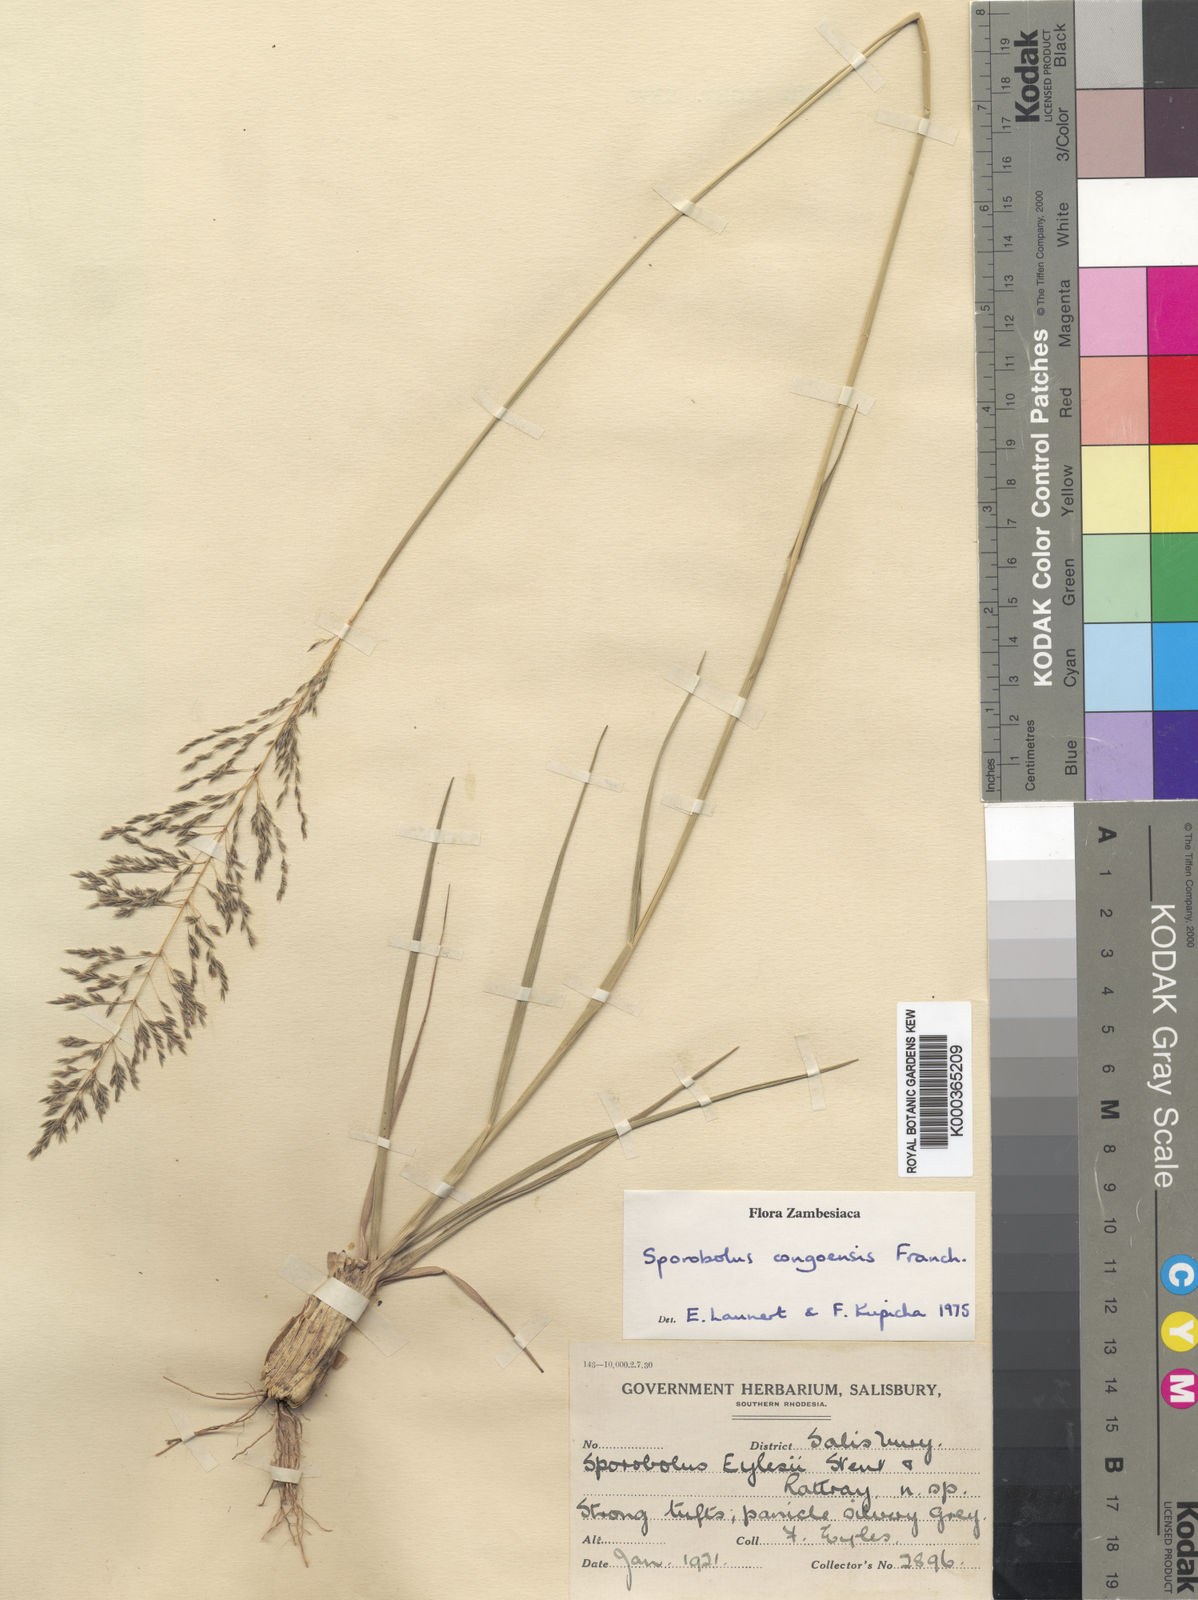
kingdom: Plantae
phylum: Tracheophyta
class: Liliopsida
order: Poales
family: Poaceae
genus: Sporobolus
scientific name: Sporobolus congoensis
